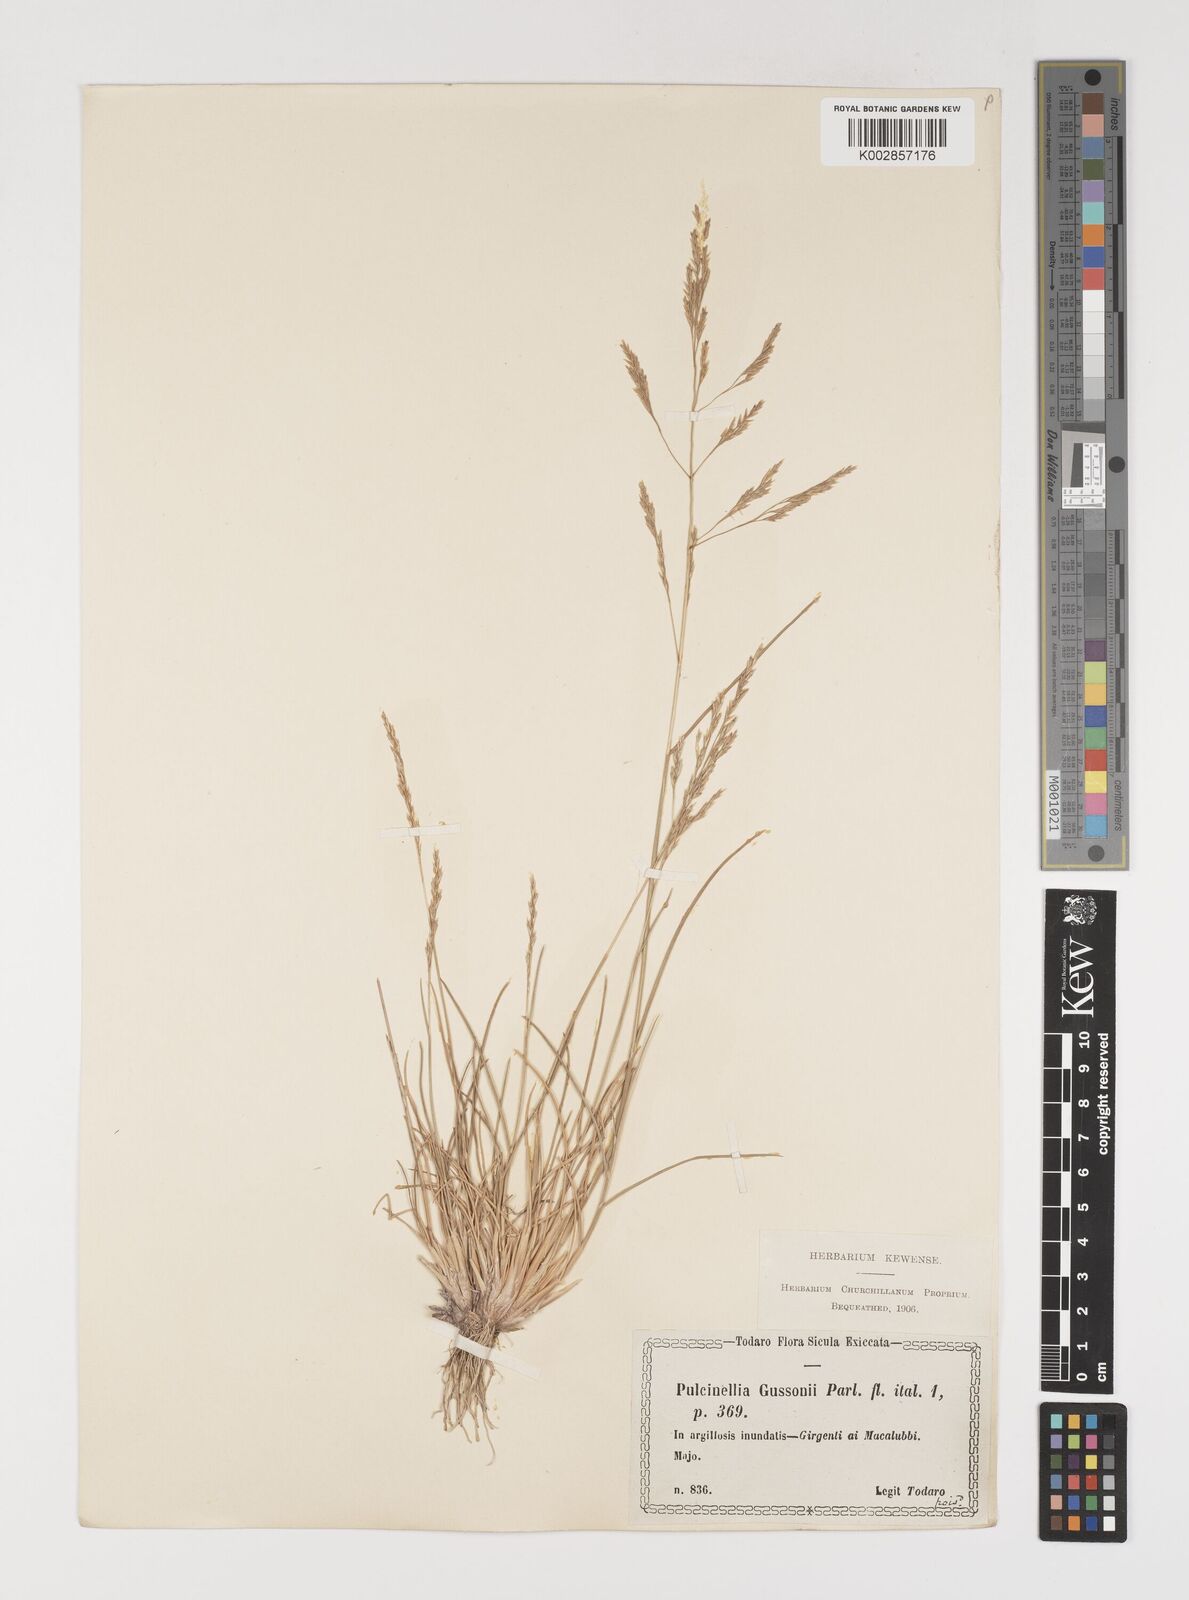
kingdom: Plantae
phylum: Tracheophyta
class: Liliopsida
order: Poales
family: Poaceae
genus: Puccinellia
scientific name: Puccinellia convoluta
